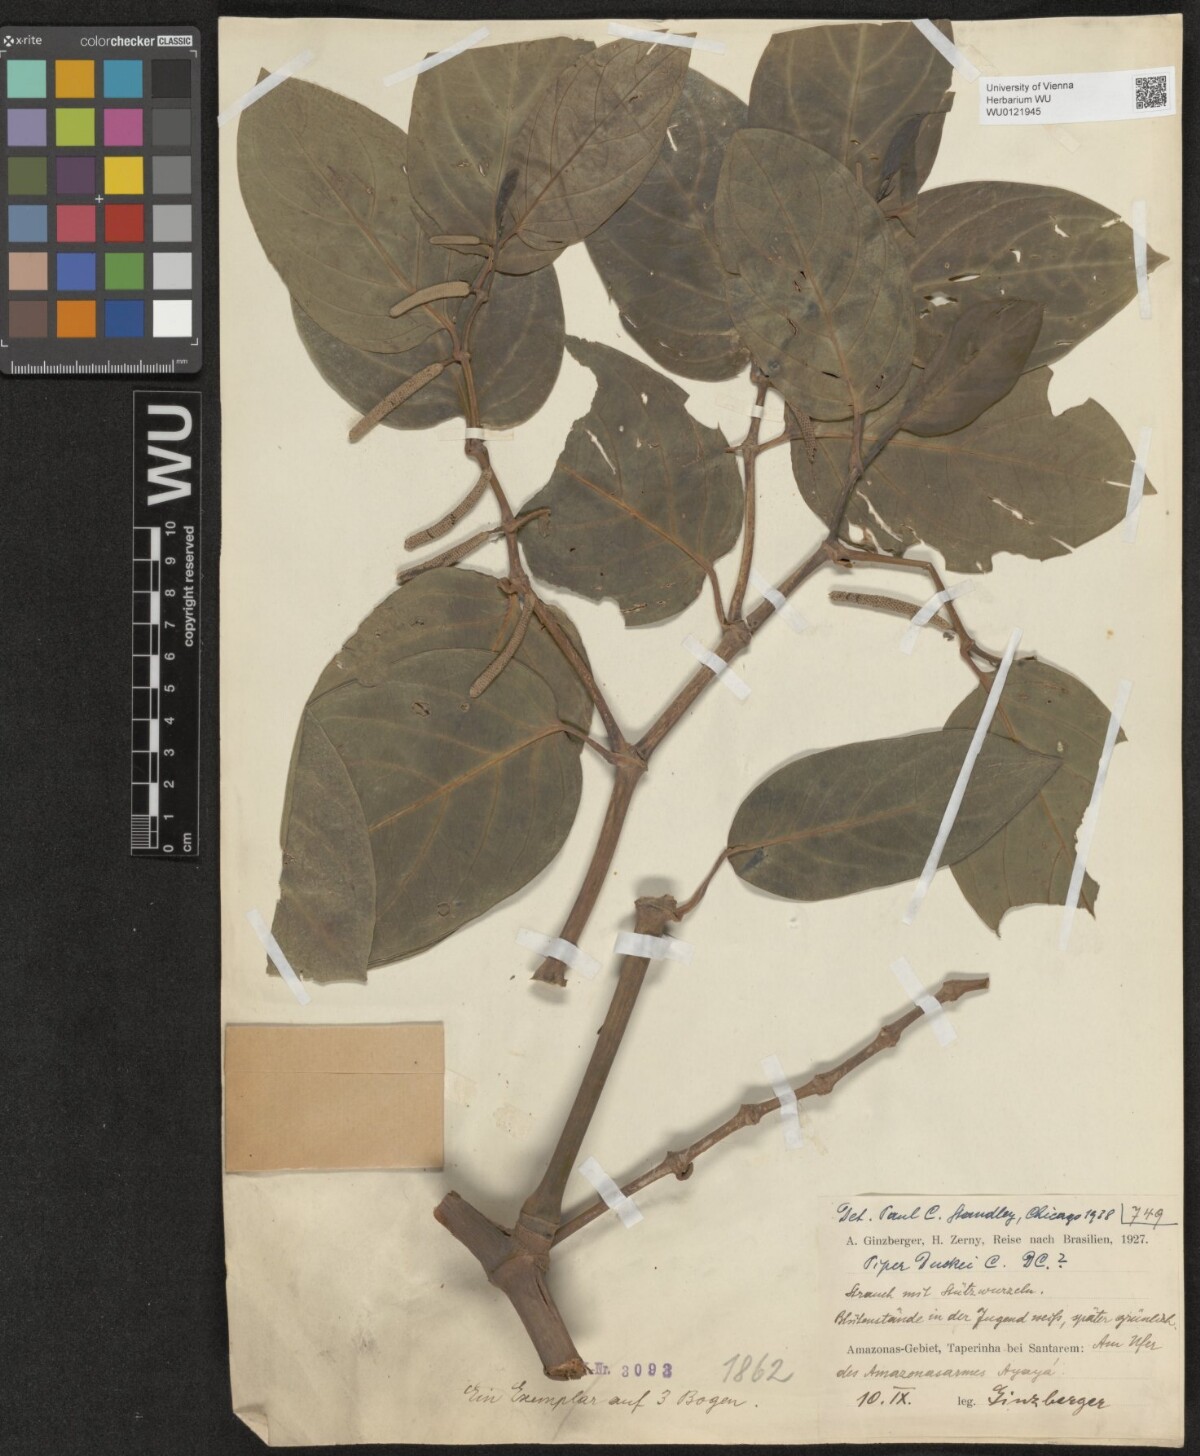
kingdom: Plantae
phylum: Tracheophyta
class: Magnoliopsida
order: Piperales
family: Piperaceae
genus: Piper
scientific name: Piper duckei
